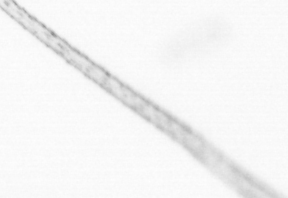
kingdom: Chromista
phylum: Ochrophyta
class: Bacillariophyceae
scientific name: Bacillariophyceae
